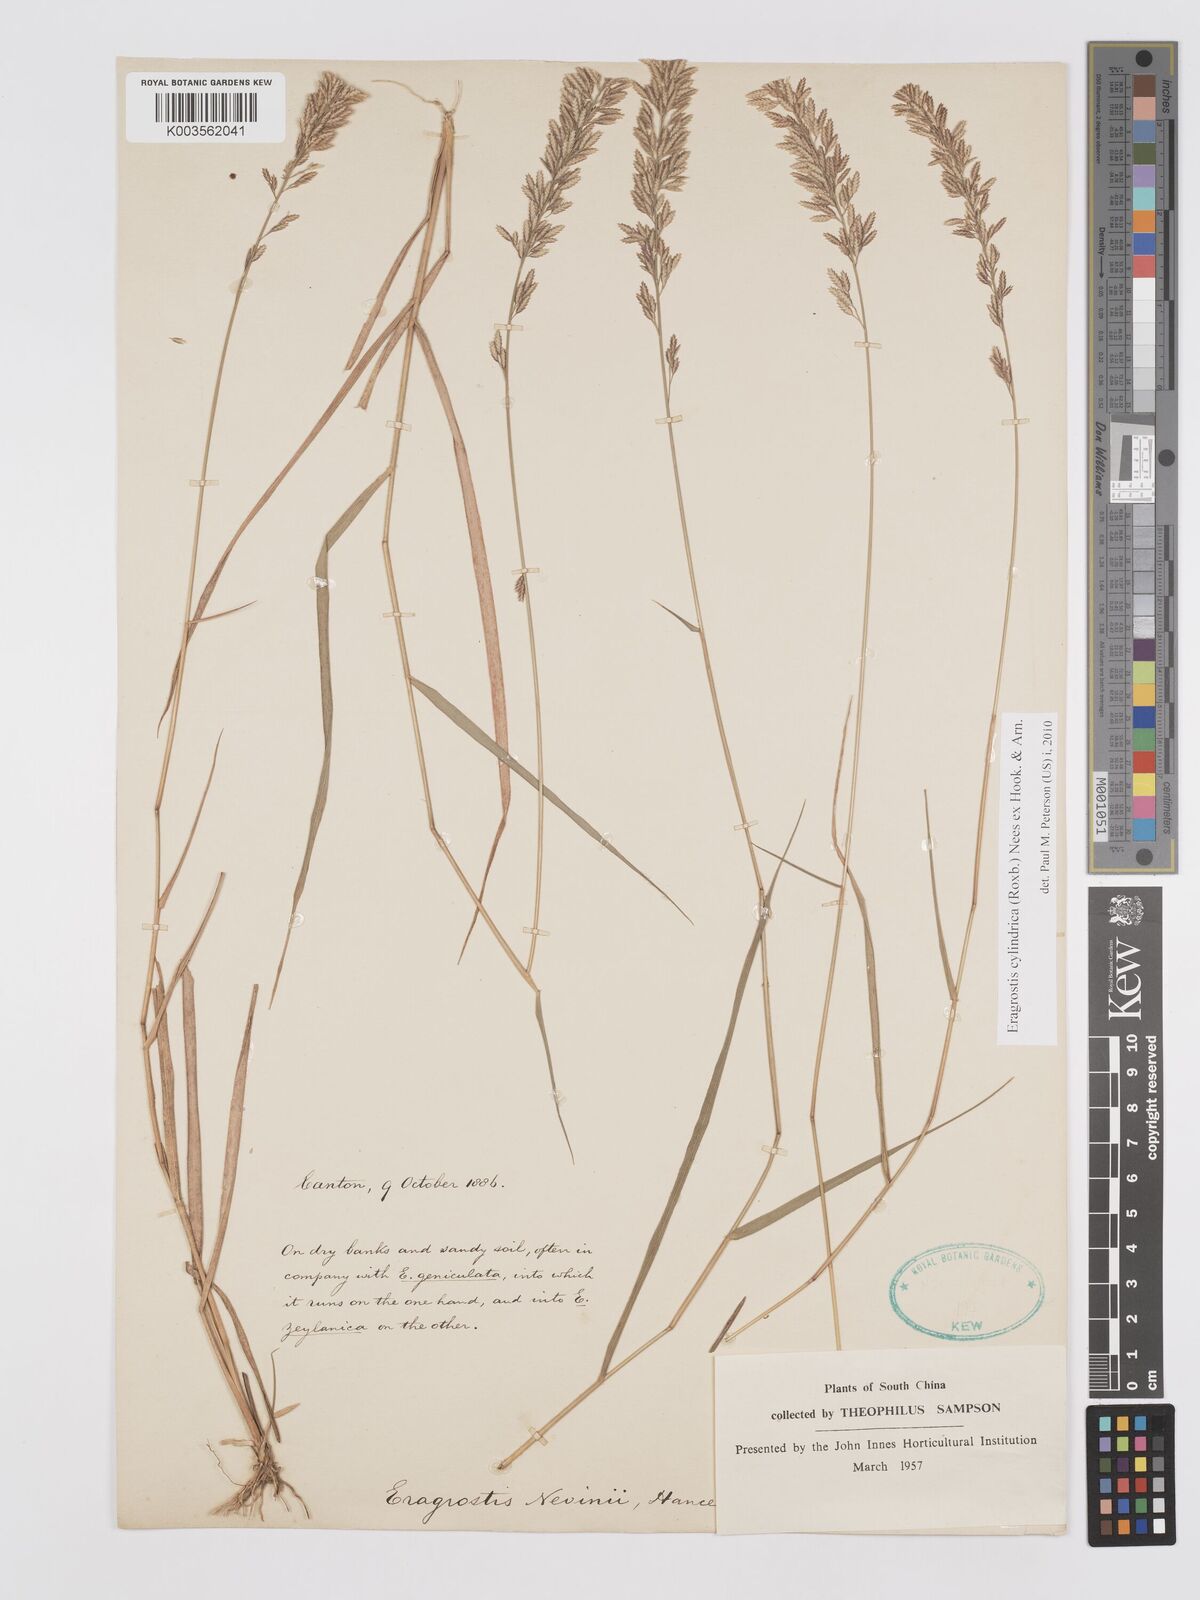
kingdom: Plantae
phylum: Tracheophyta
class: Liliopsida
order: Poales
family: Poaceae
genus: Eragrostis
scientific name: Eragrostis cylindrica
